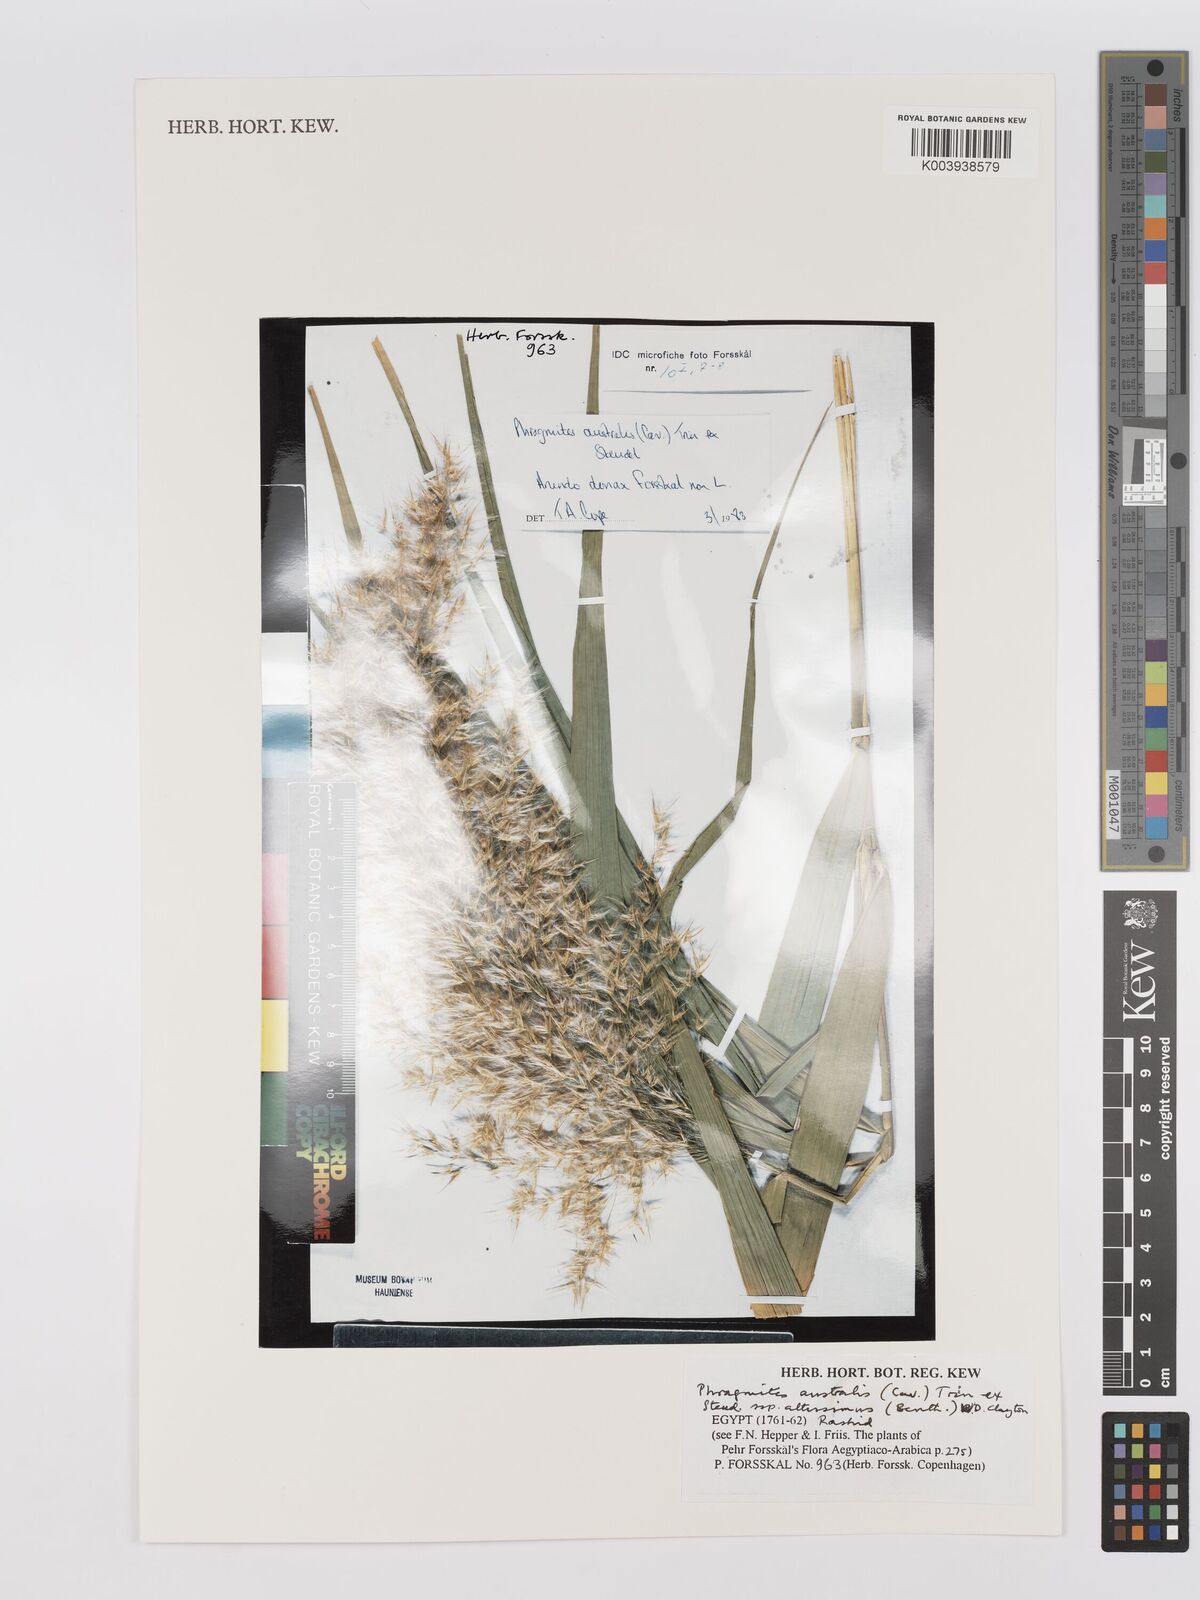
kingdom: Plantae
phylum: Tracheophyta
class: Liliopsida
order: Poales
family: Poaceae
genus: Phragmites
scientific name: Phragmites australis
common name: Common reed
